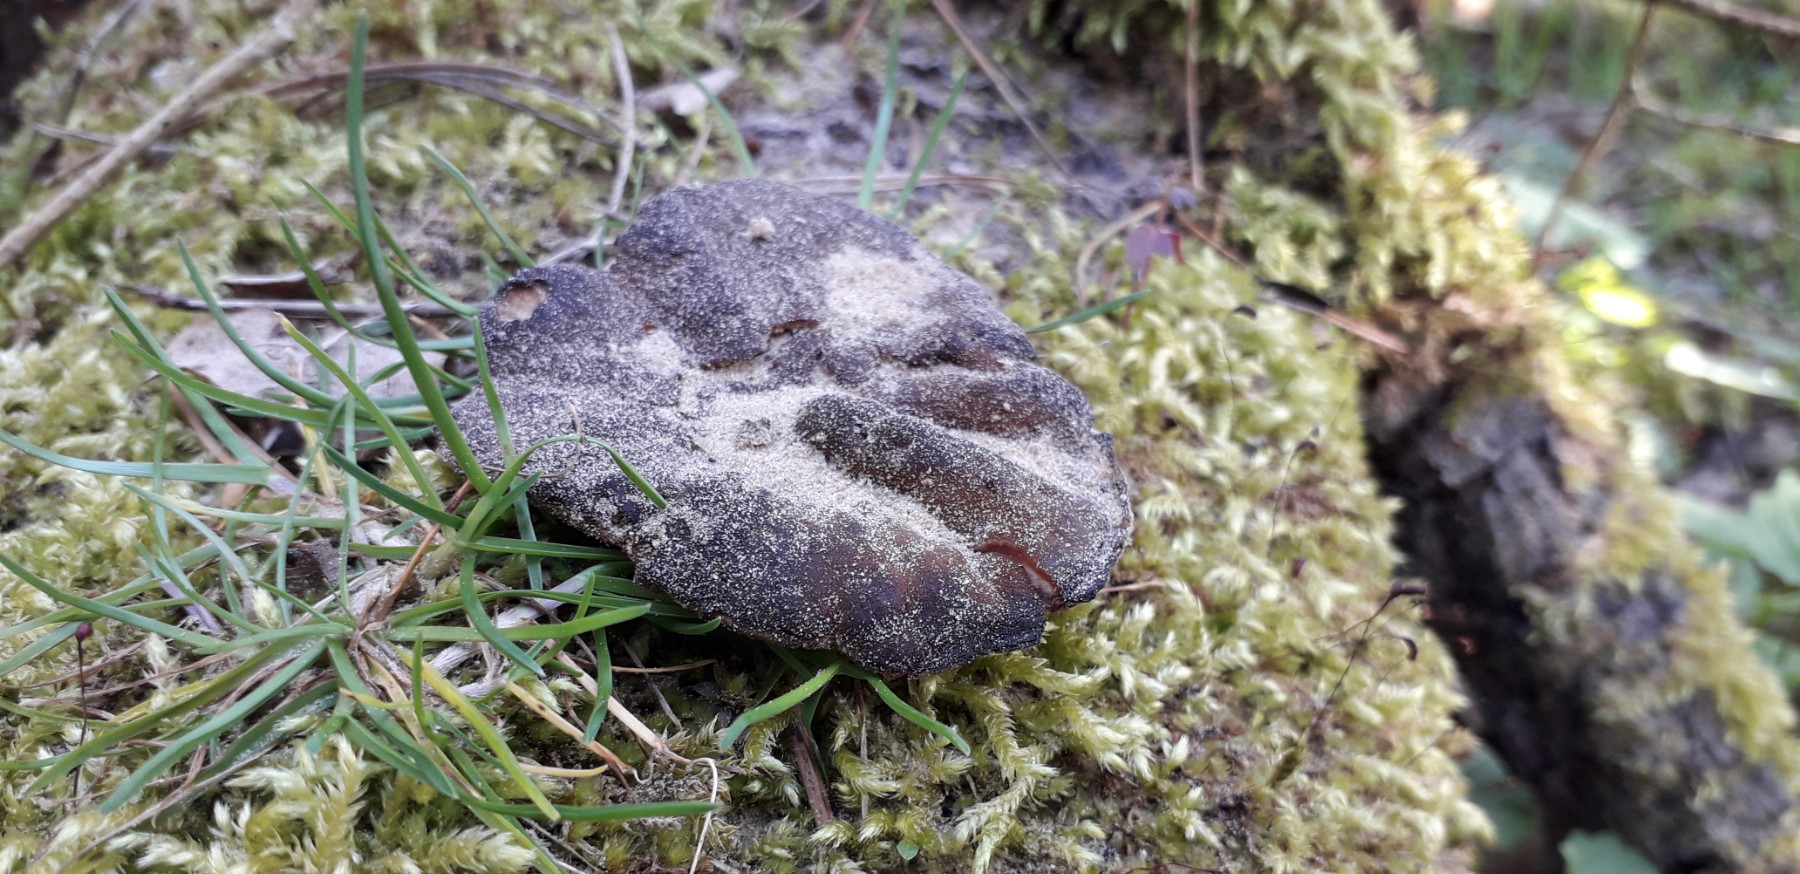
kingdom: Fungi
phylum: Ascomycota
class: Pezizomycetes
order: Pezizales
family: Discinaceae
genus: Discina
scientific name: Discina ancilis
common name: udbredt stenmorkel
